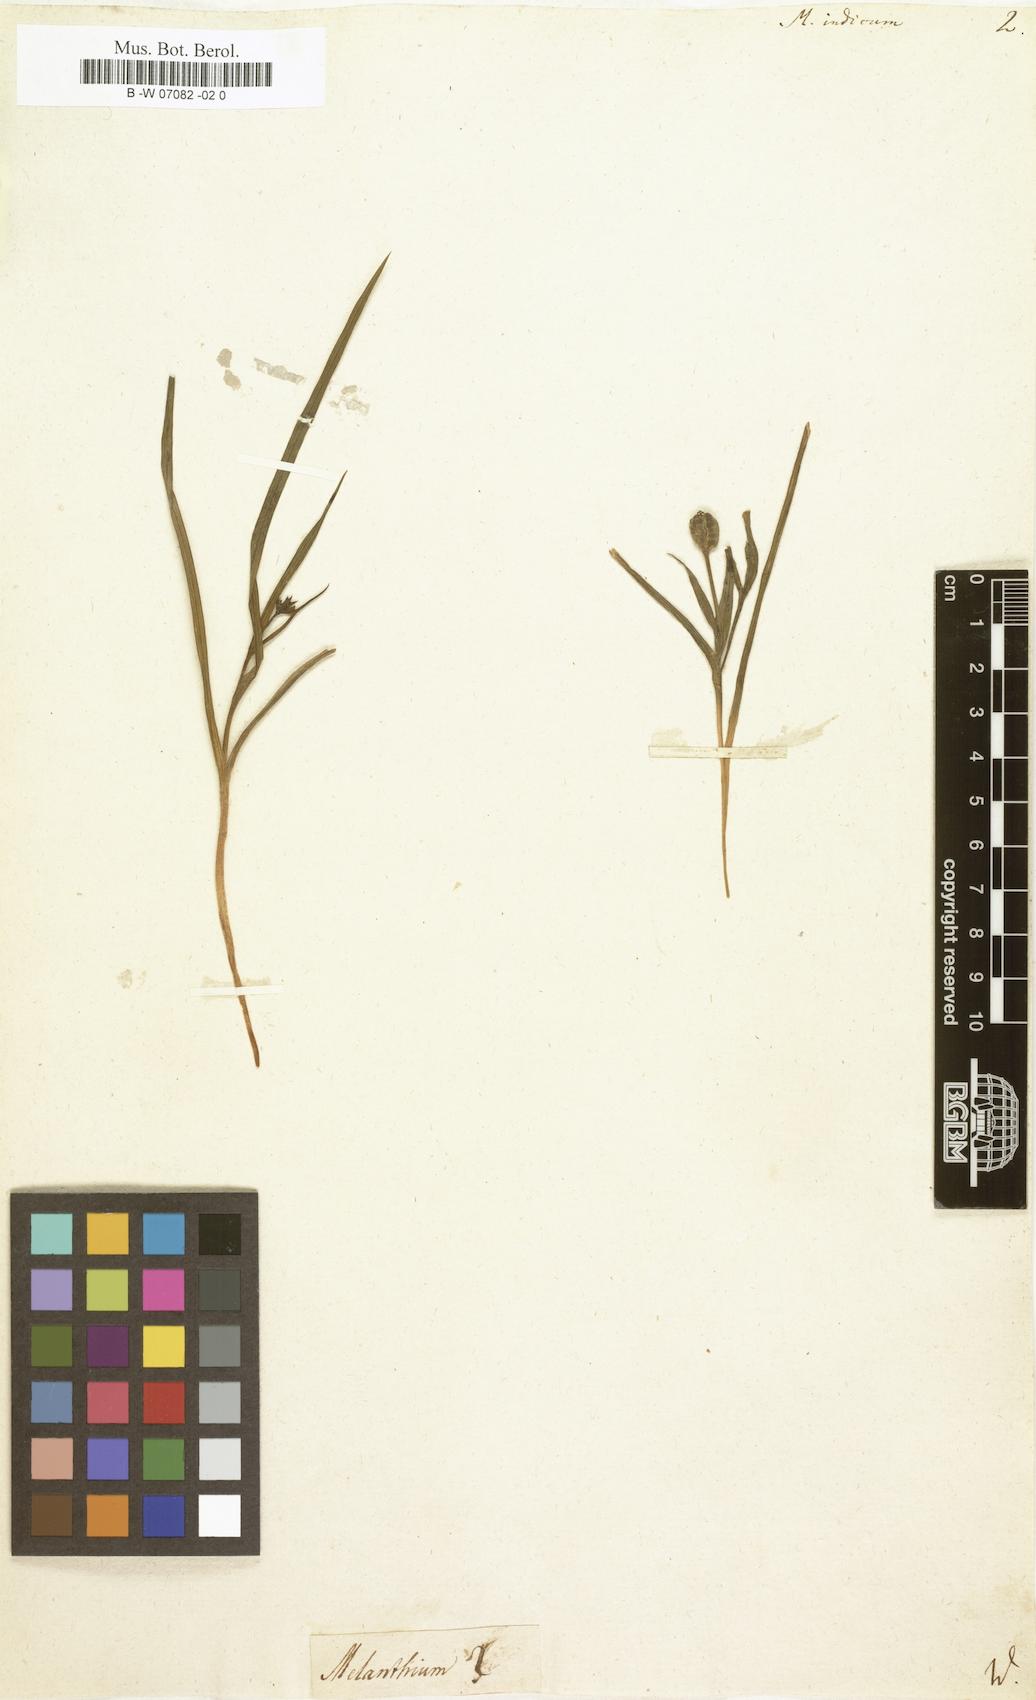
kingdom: Plantae
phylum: Tracheophyta
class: Liliopsida
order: Liliales
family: Colchicaceae
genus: Iphigenia
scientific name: Iphigenia indica
